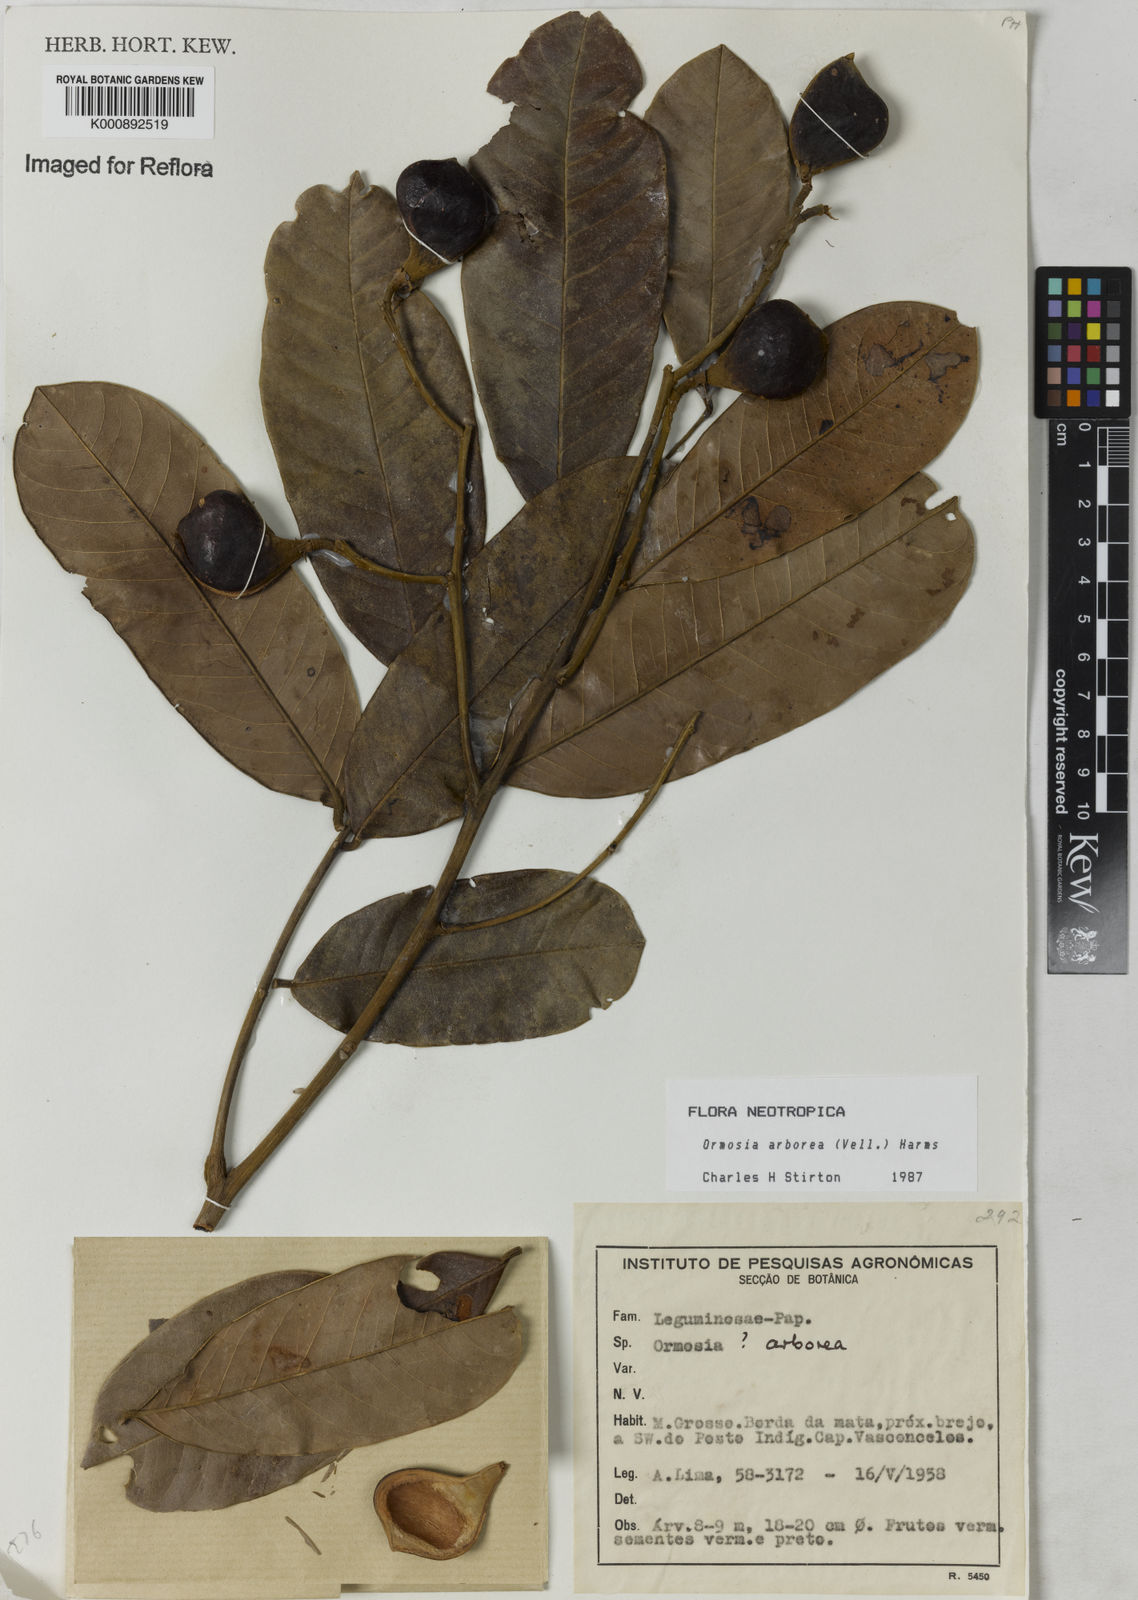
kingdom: Plantae
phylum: Tracheophyta
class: Magnoliopsida
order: Fabales
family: Fabaceae
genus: Ormosia
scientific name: Ormosia arborea
